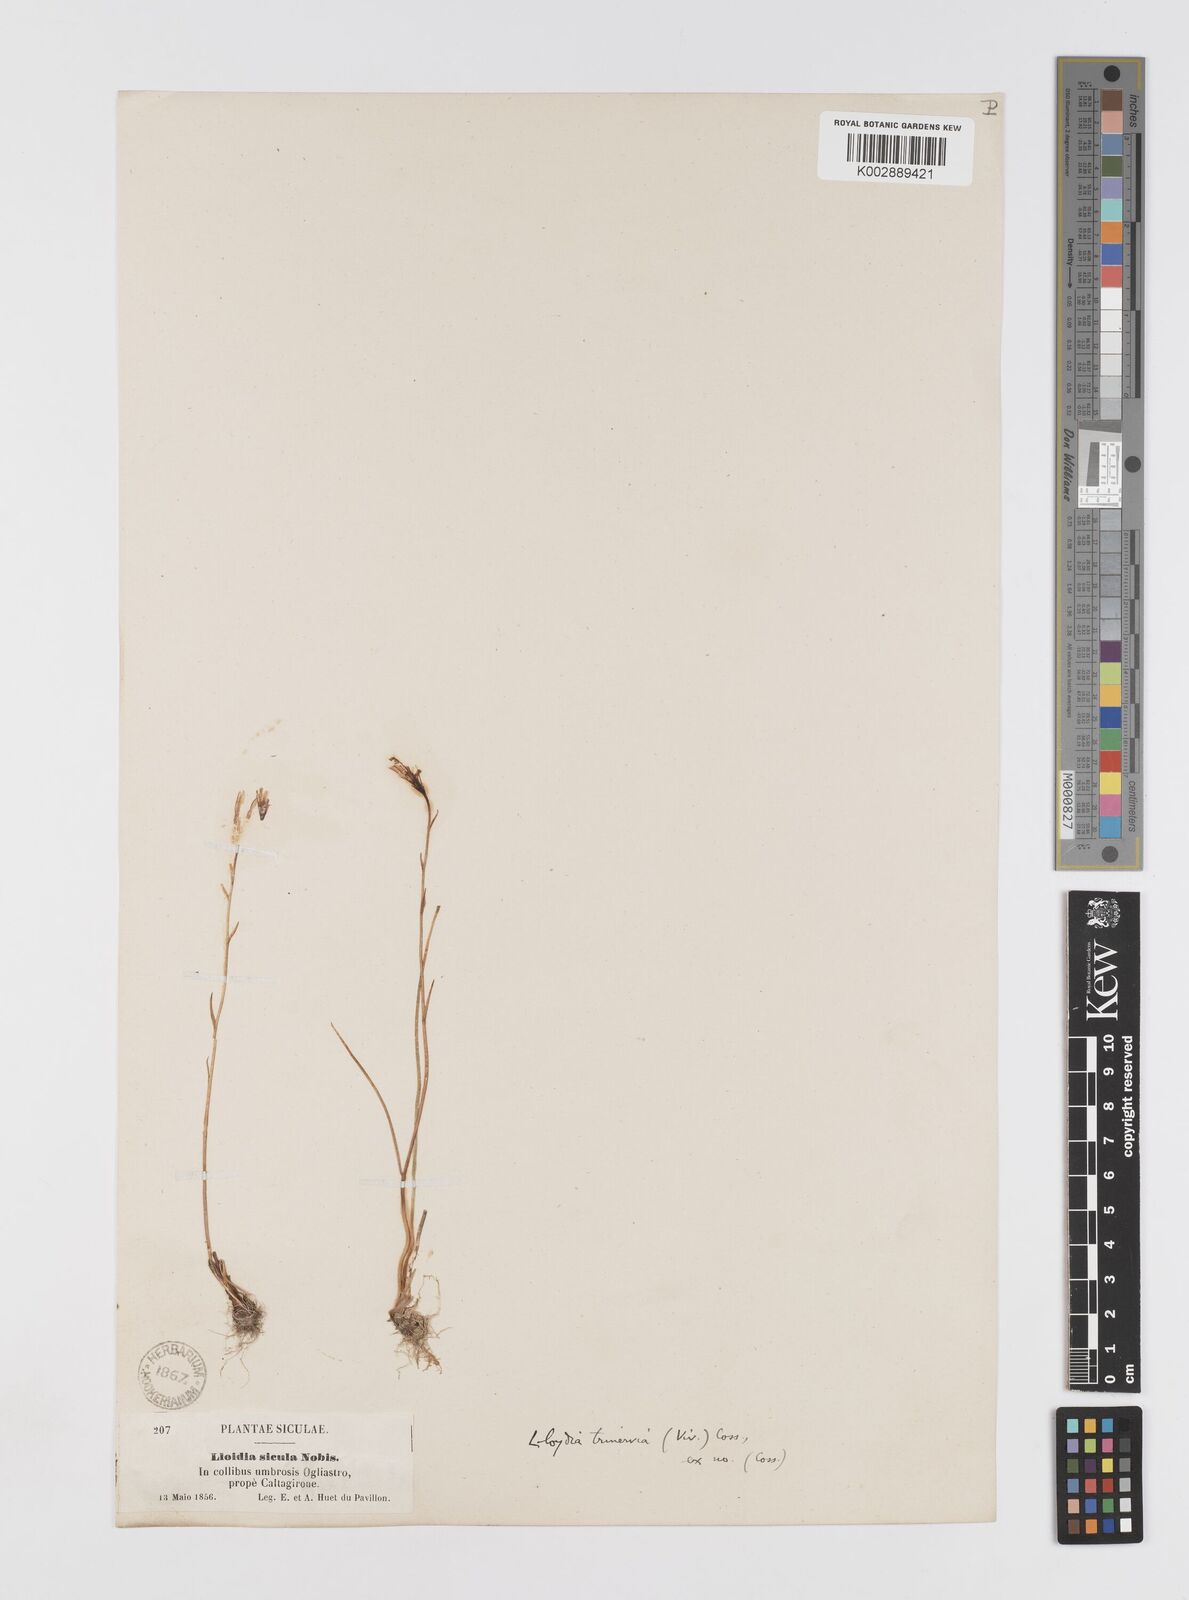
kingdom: Plantae
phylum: Tracheophyta
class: Liliopsida
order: Liliales
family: Liliaceae
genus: Gagea
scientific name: Gagea serotina
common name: Snowdon lily
